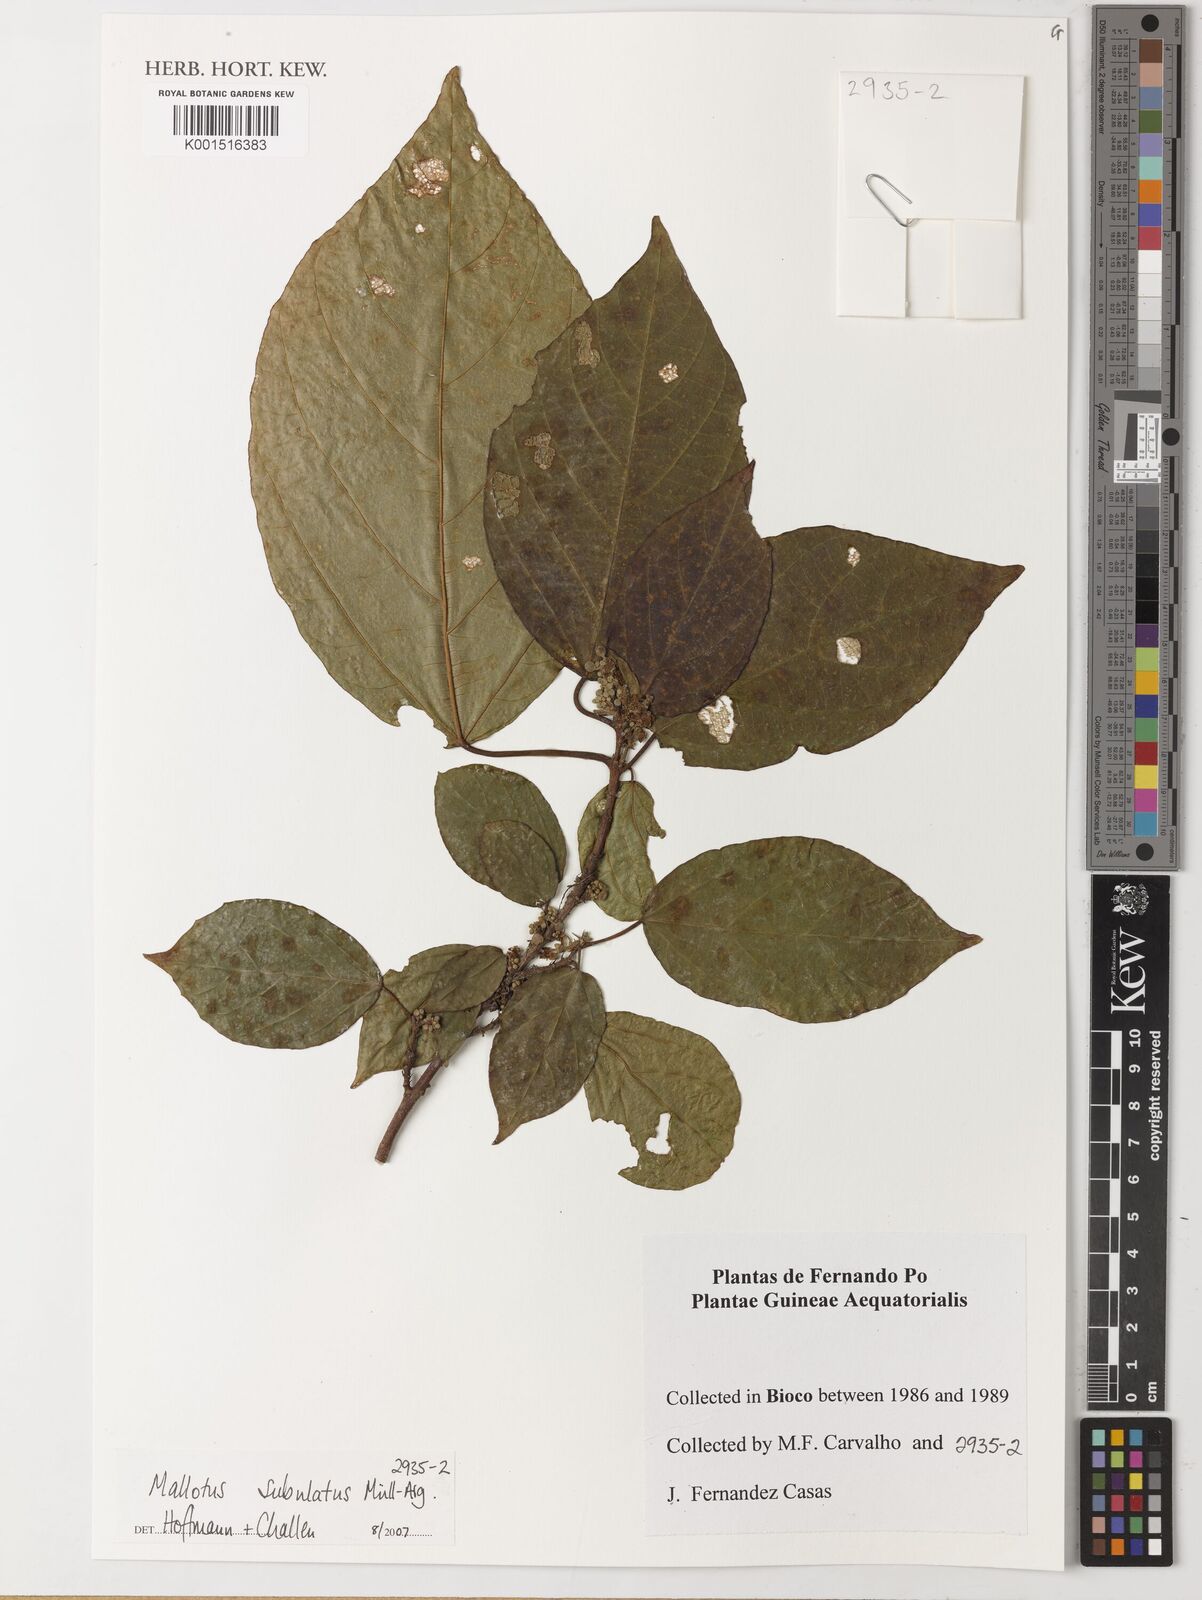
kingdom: Plantae
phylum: Tracheophyta
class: Magnoliopsida
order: Malpighiales
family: Euphorbiaceae
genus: Mallotus
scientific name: Mallotus subulatus
